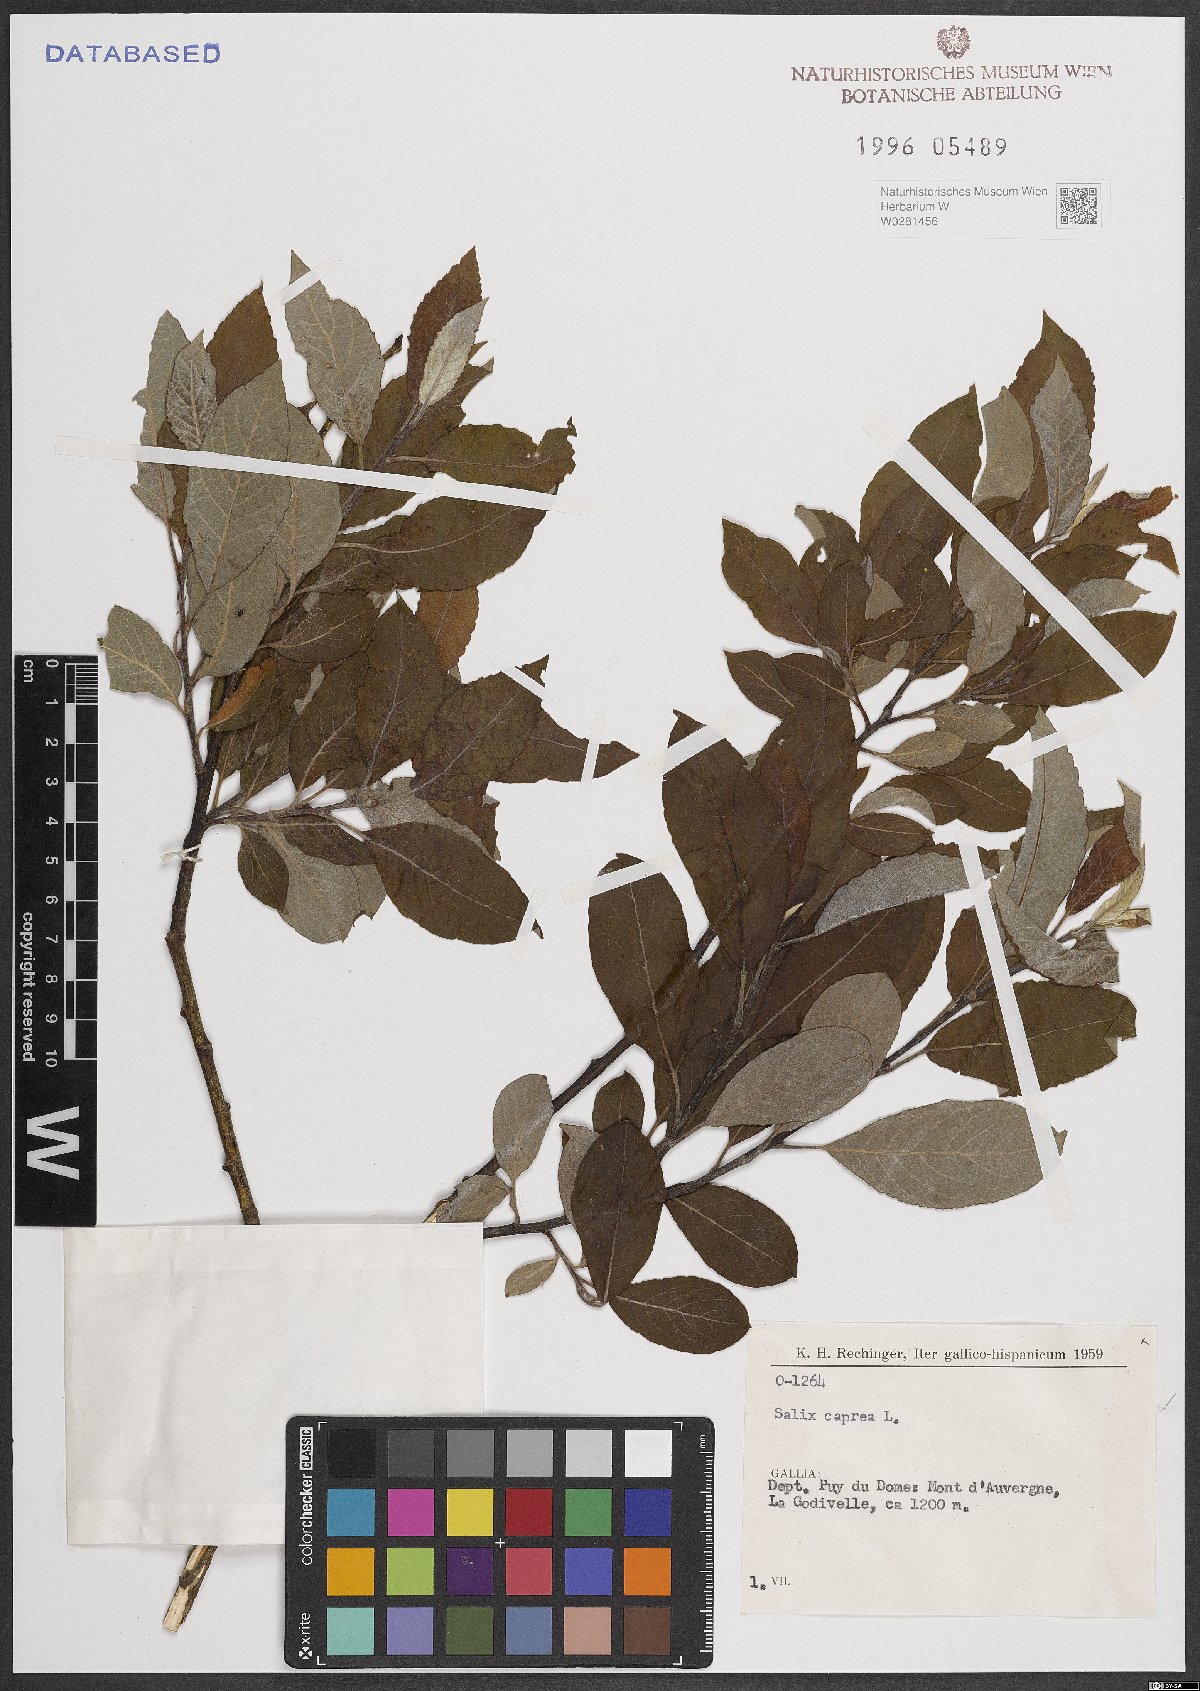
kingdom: Plantae
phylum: Tracheophyta
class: Magnoliopsida
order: Malpighiales
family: Salicaceae
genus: Salix
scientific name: Salix caprea
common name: Goat willow
